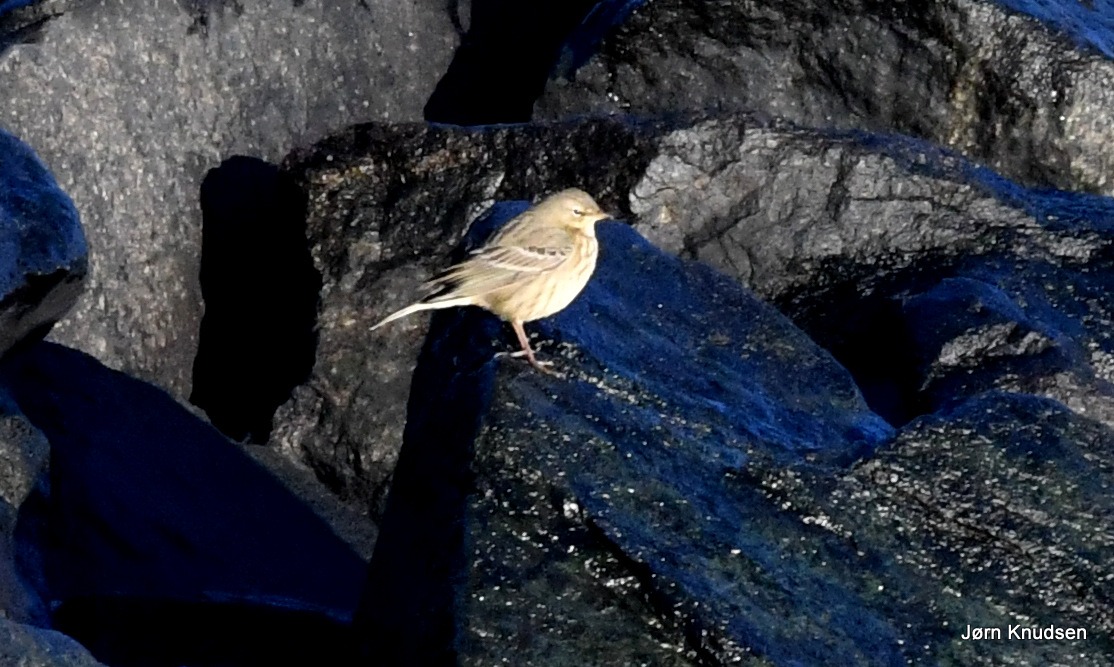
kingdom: Animalia
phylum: Chordata
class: Aves
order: Passeriformes
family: Motacillidae
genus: Anthus
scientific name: Anthus petrosus
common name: Skærpiber
